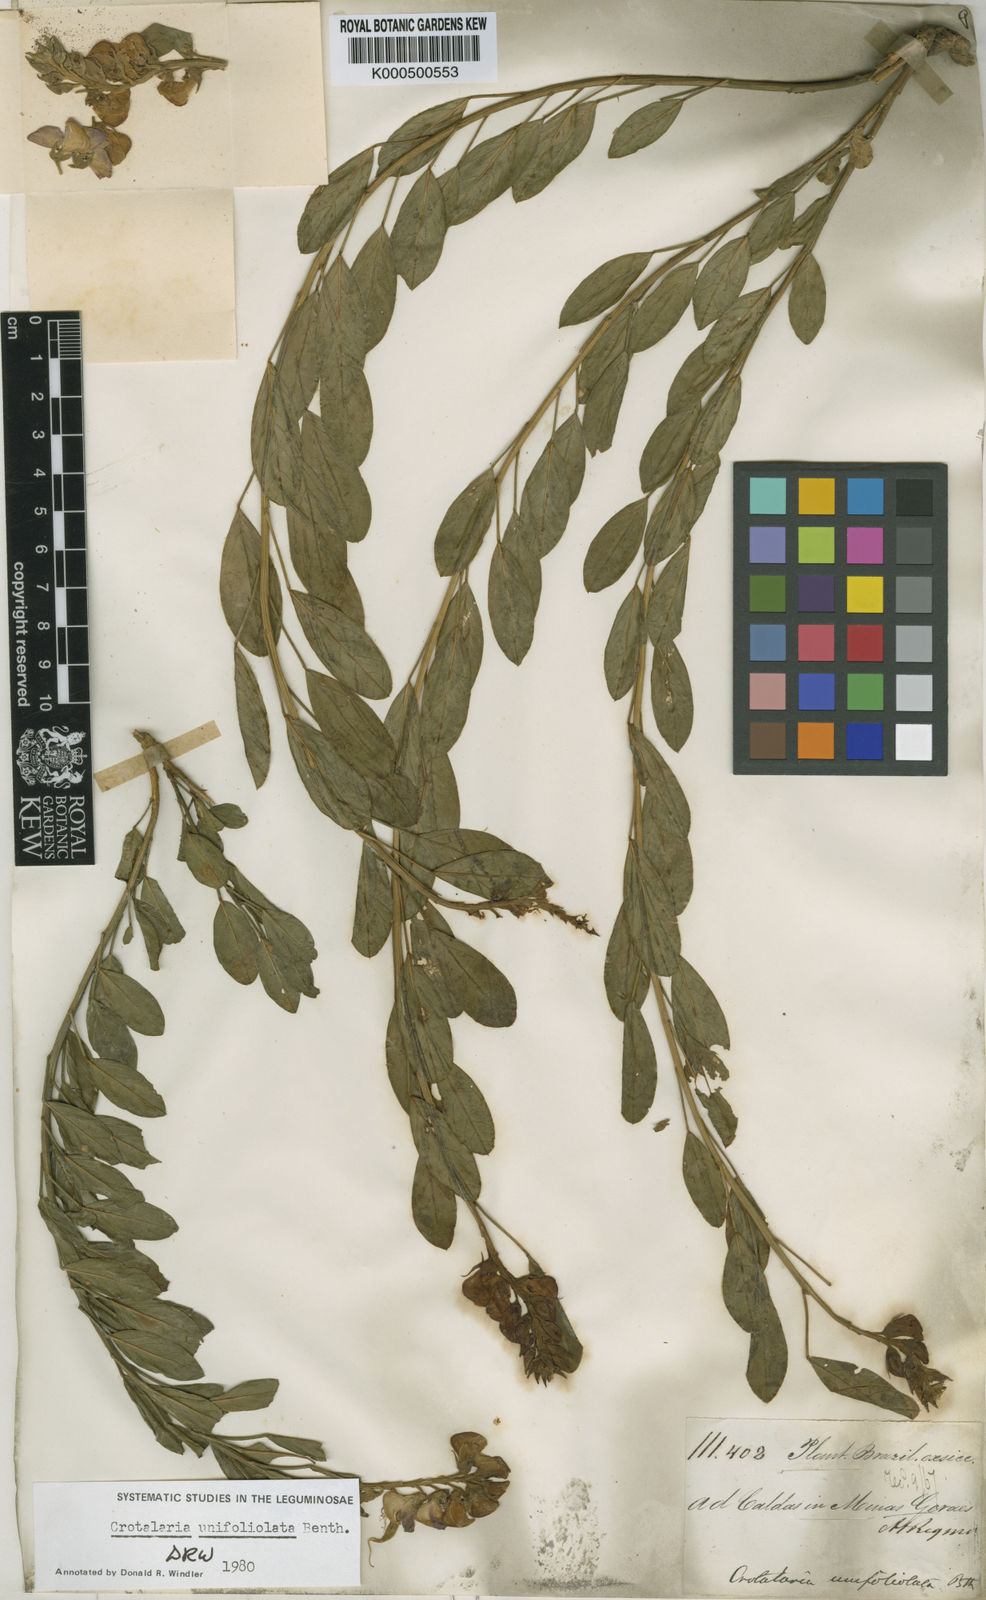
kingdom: Plantae
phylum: Tracheophyta
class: Magnoliopsida
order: Fabales
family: Fabaceae
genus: Crotalaria
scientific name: Crotalaria unifoliolata
